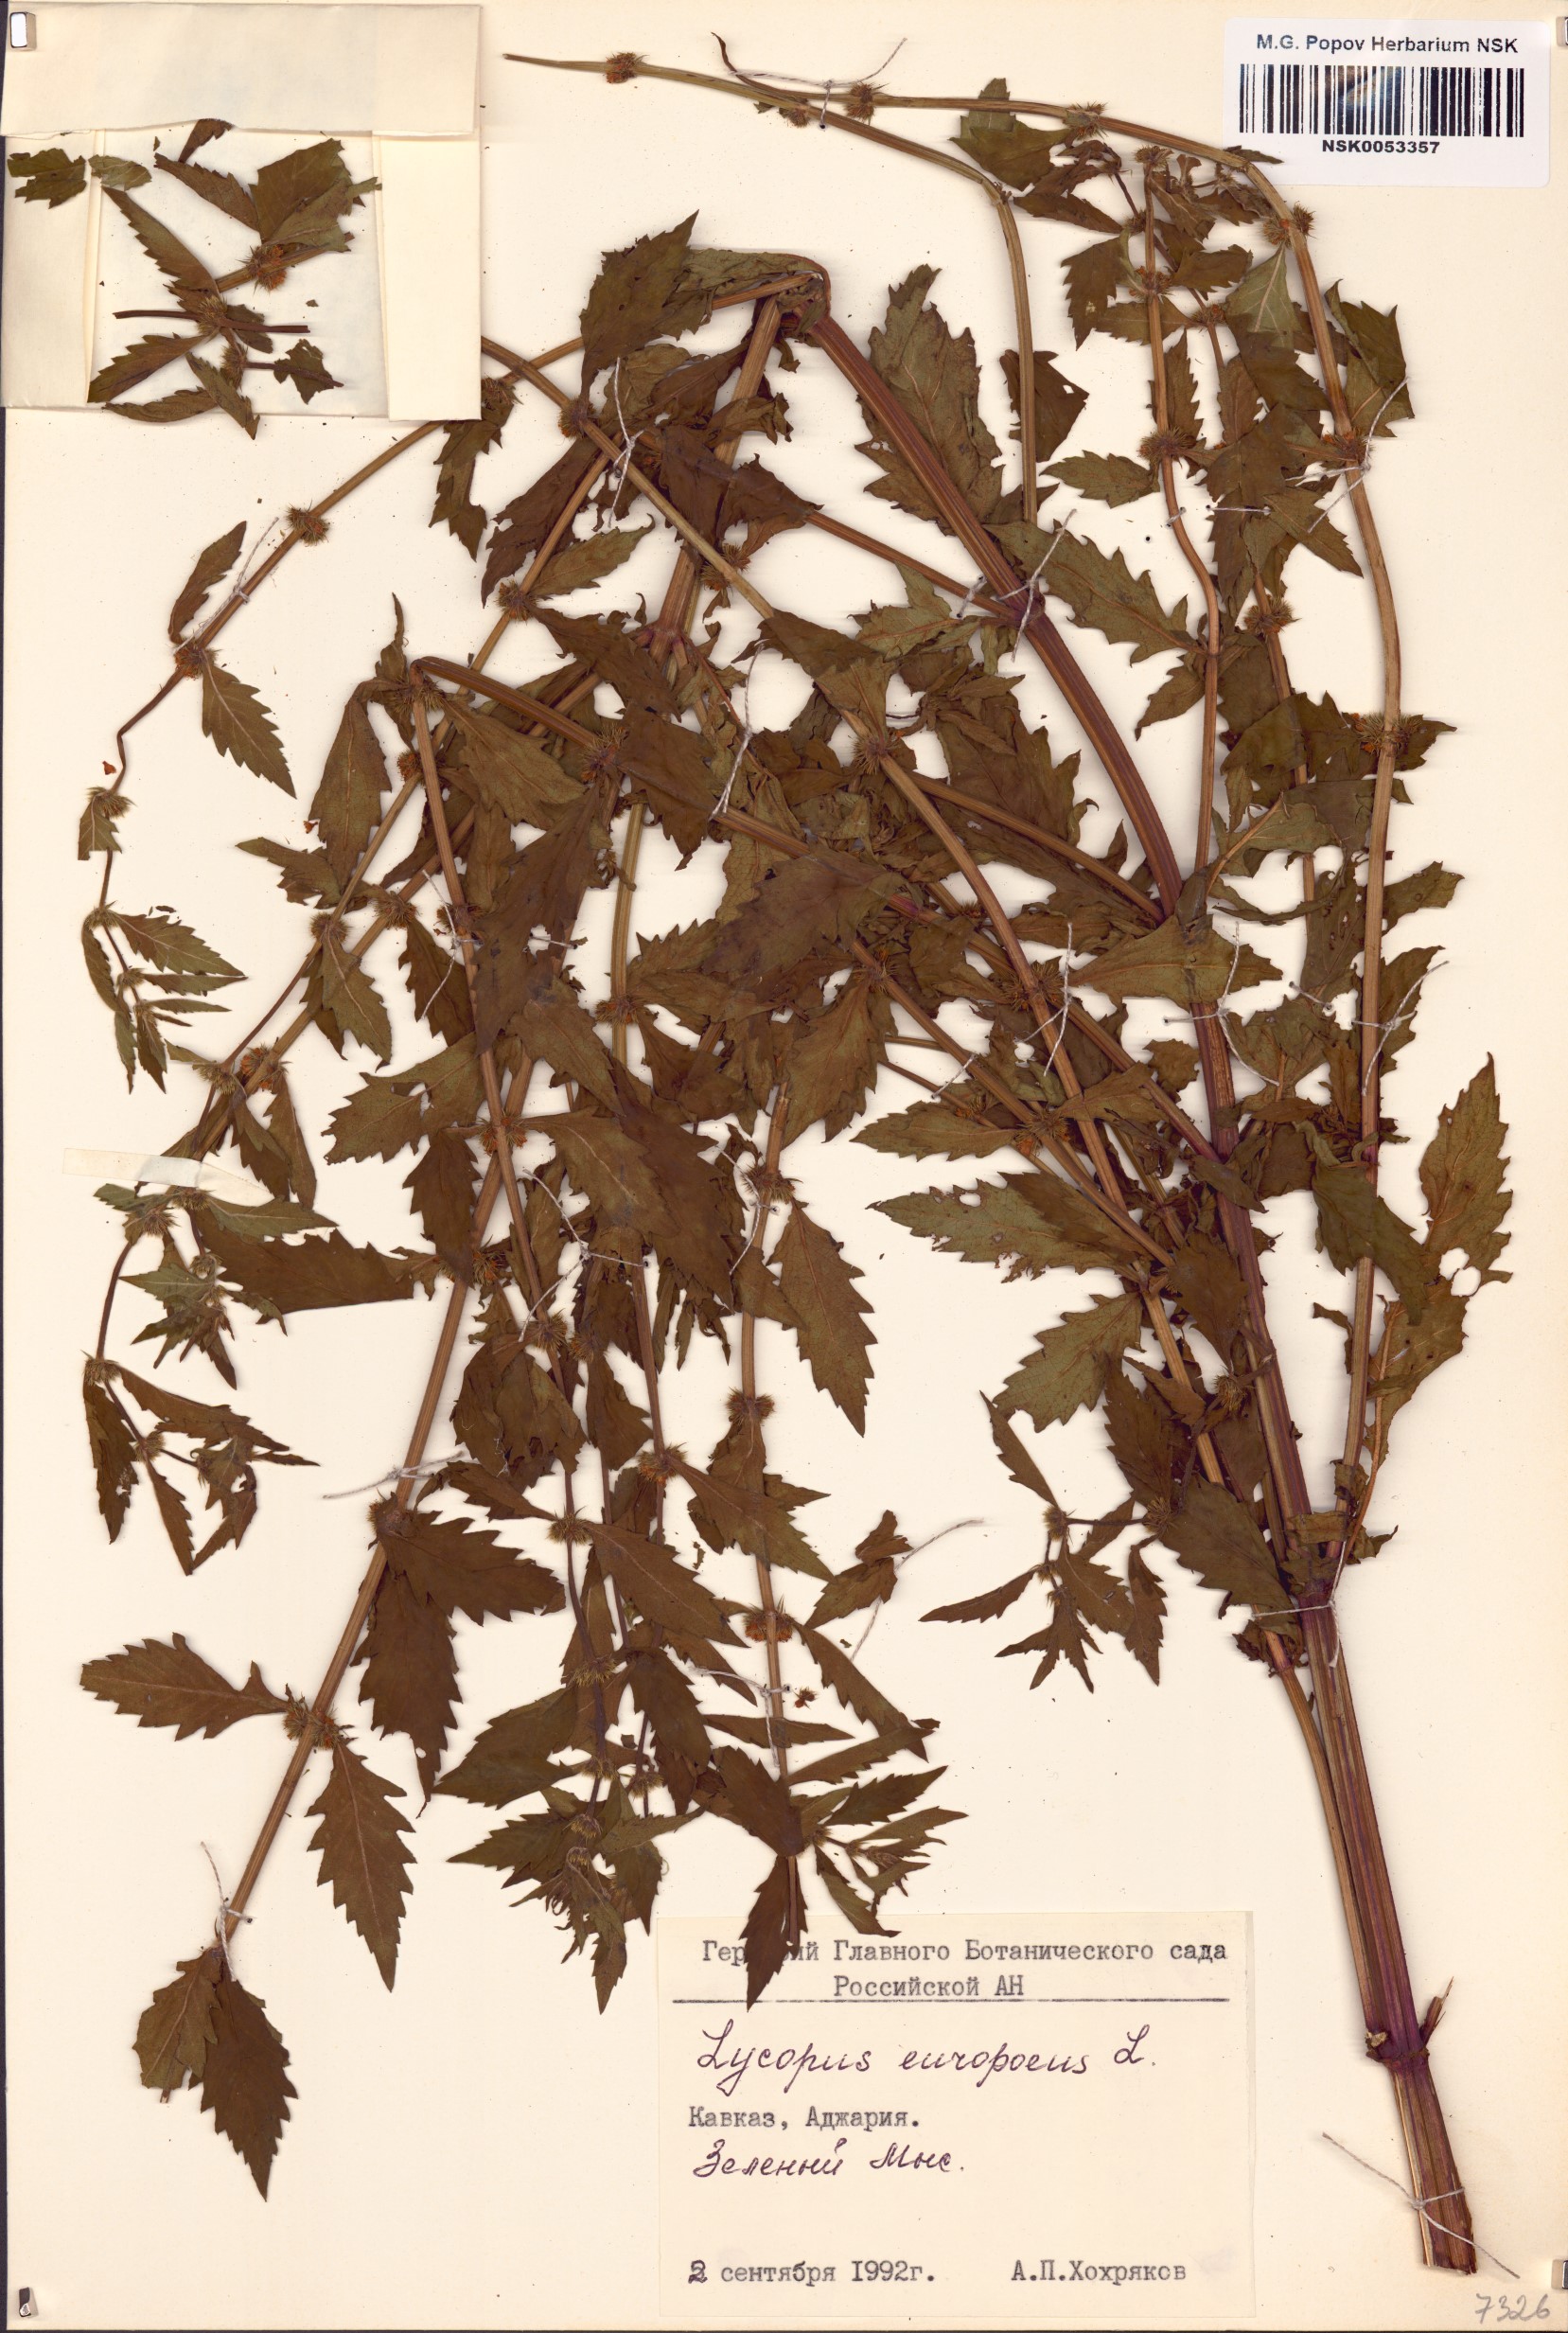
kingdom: Plantae
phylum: Tracheophyta
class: Magnoliopsida
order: Lamiales
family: Lamiaceae
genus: Lycopus
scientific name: Lycopus europaeus
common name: European bugleweed
